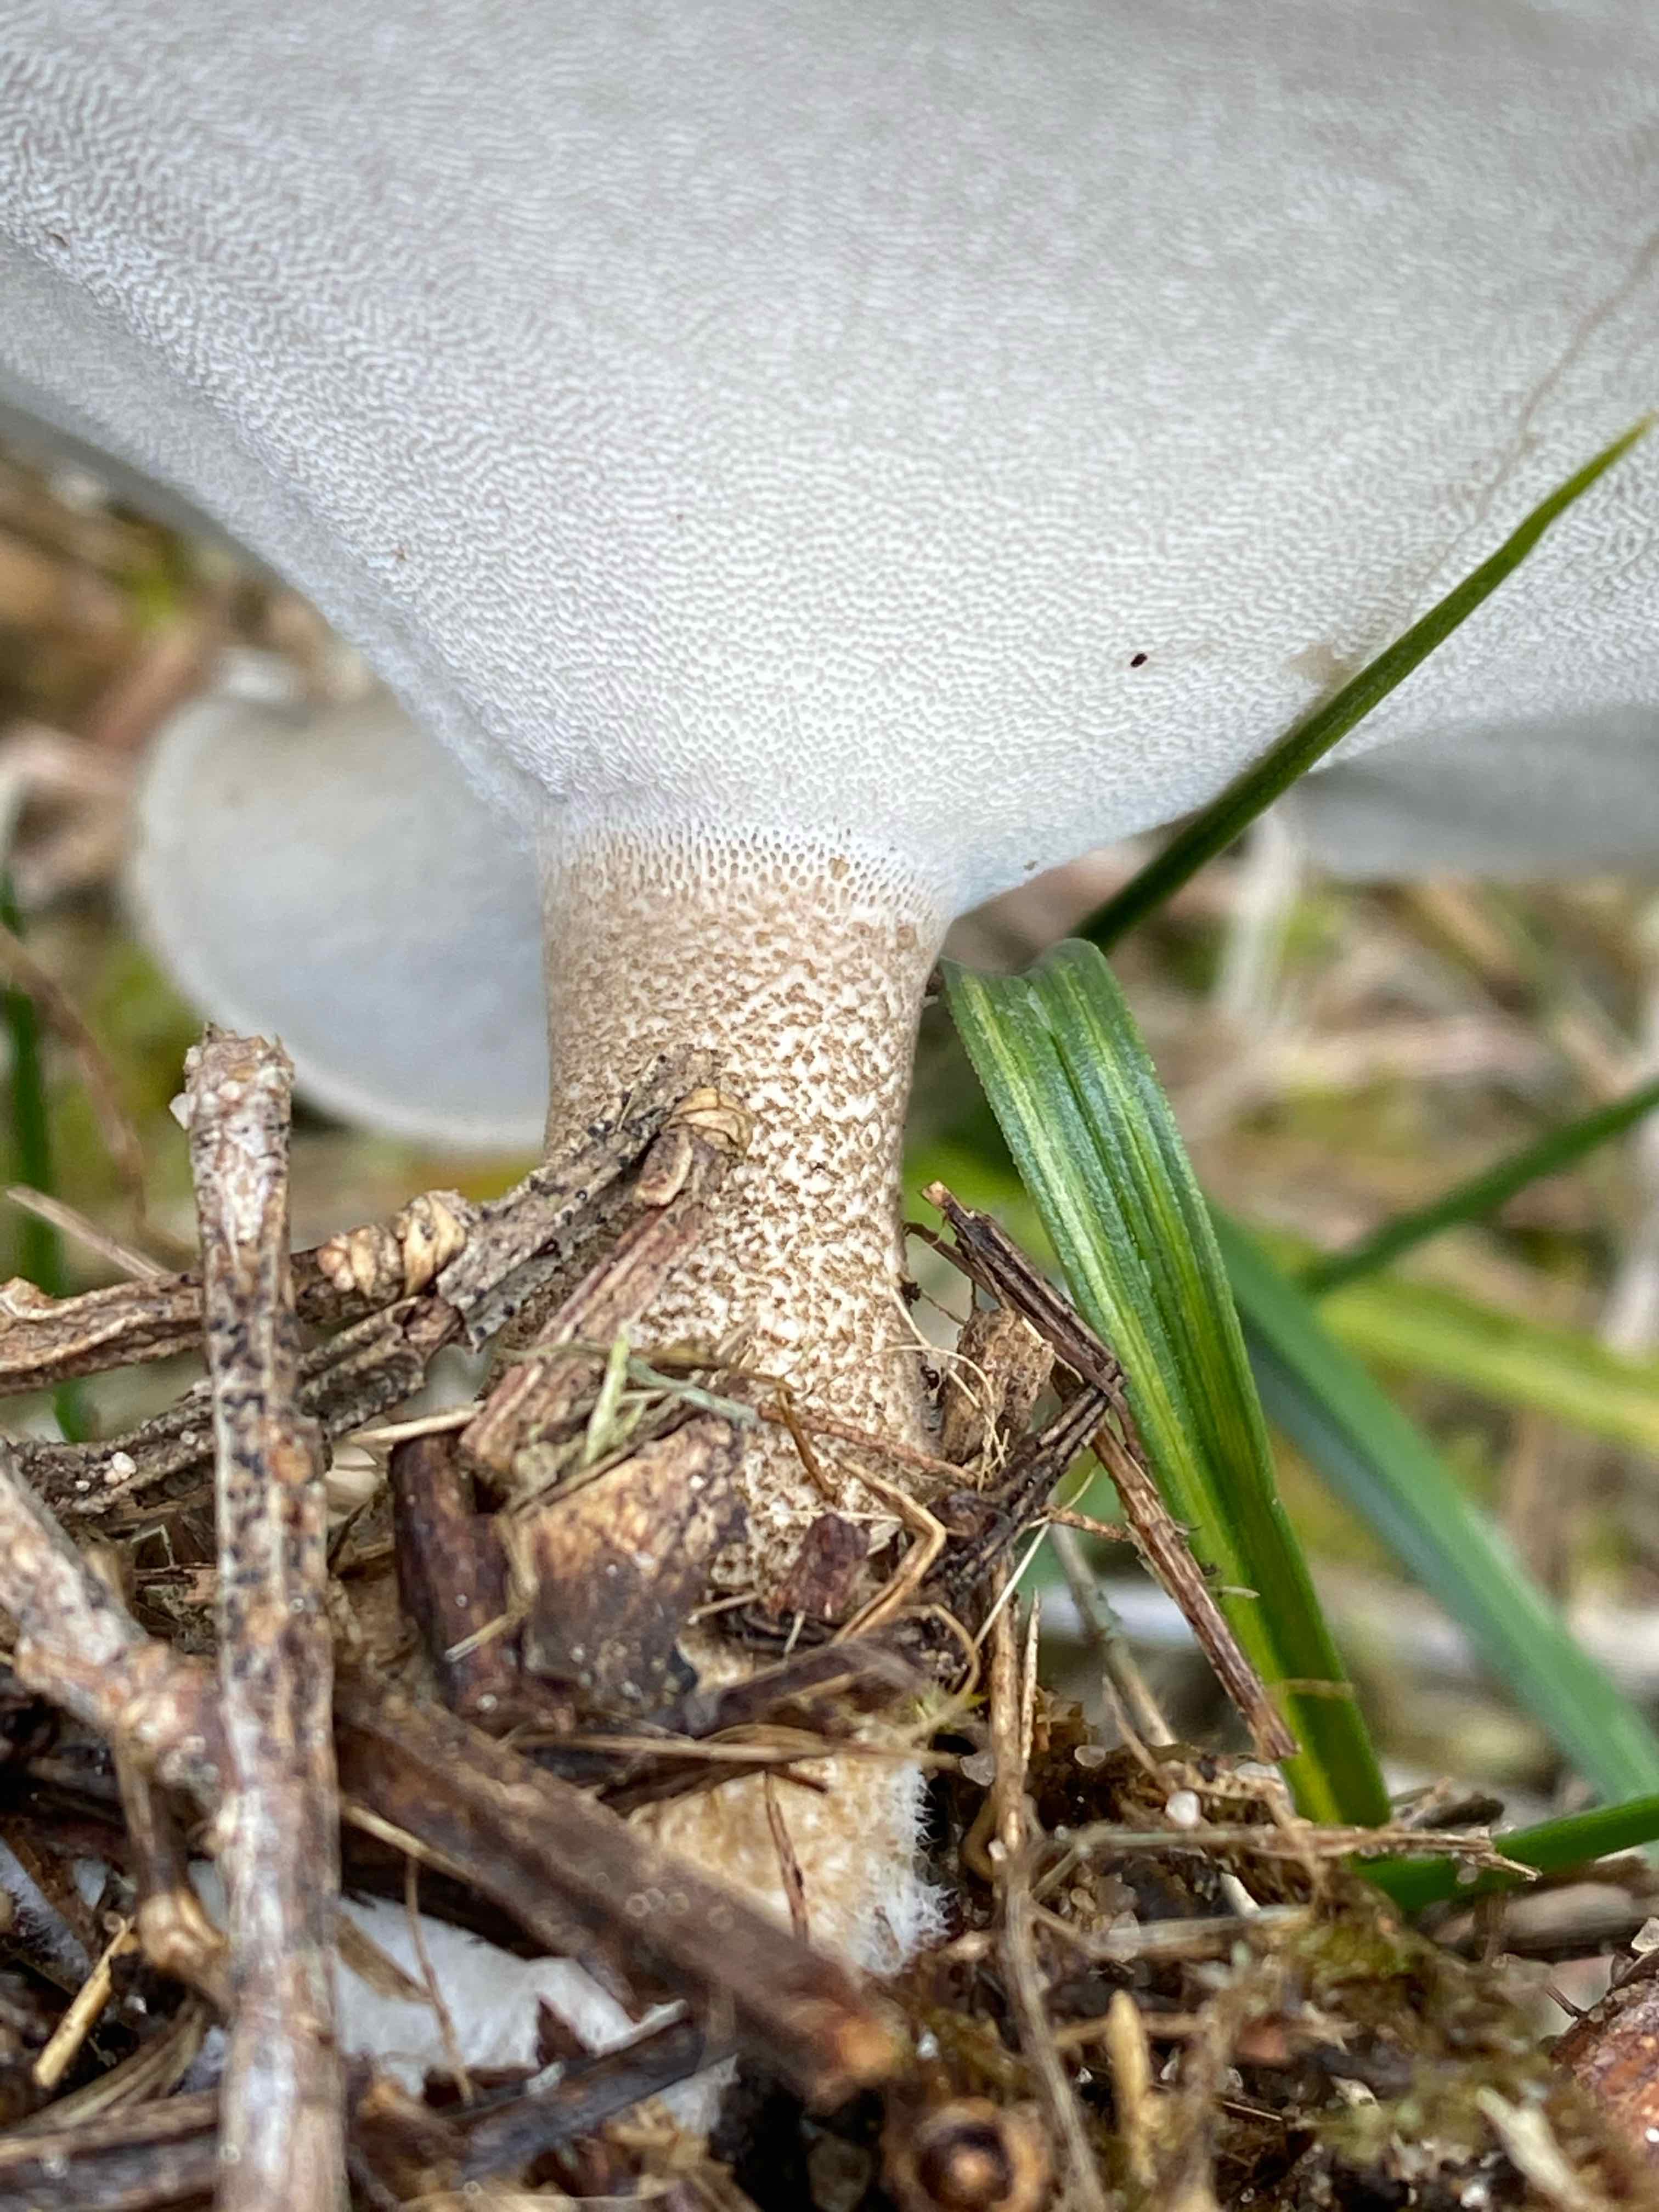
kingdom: Fungi
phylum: Basidiomycota
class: Agaricomycetes
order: Polyporales
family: Polyporaceae
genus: Lentinus
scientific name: Lentinus substrictus
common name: forårs-stilkporesvamp
